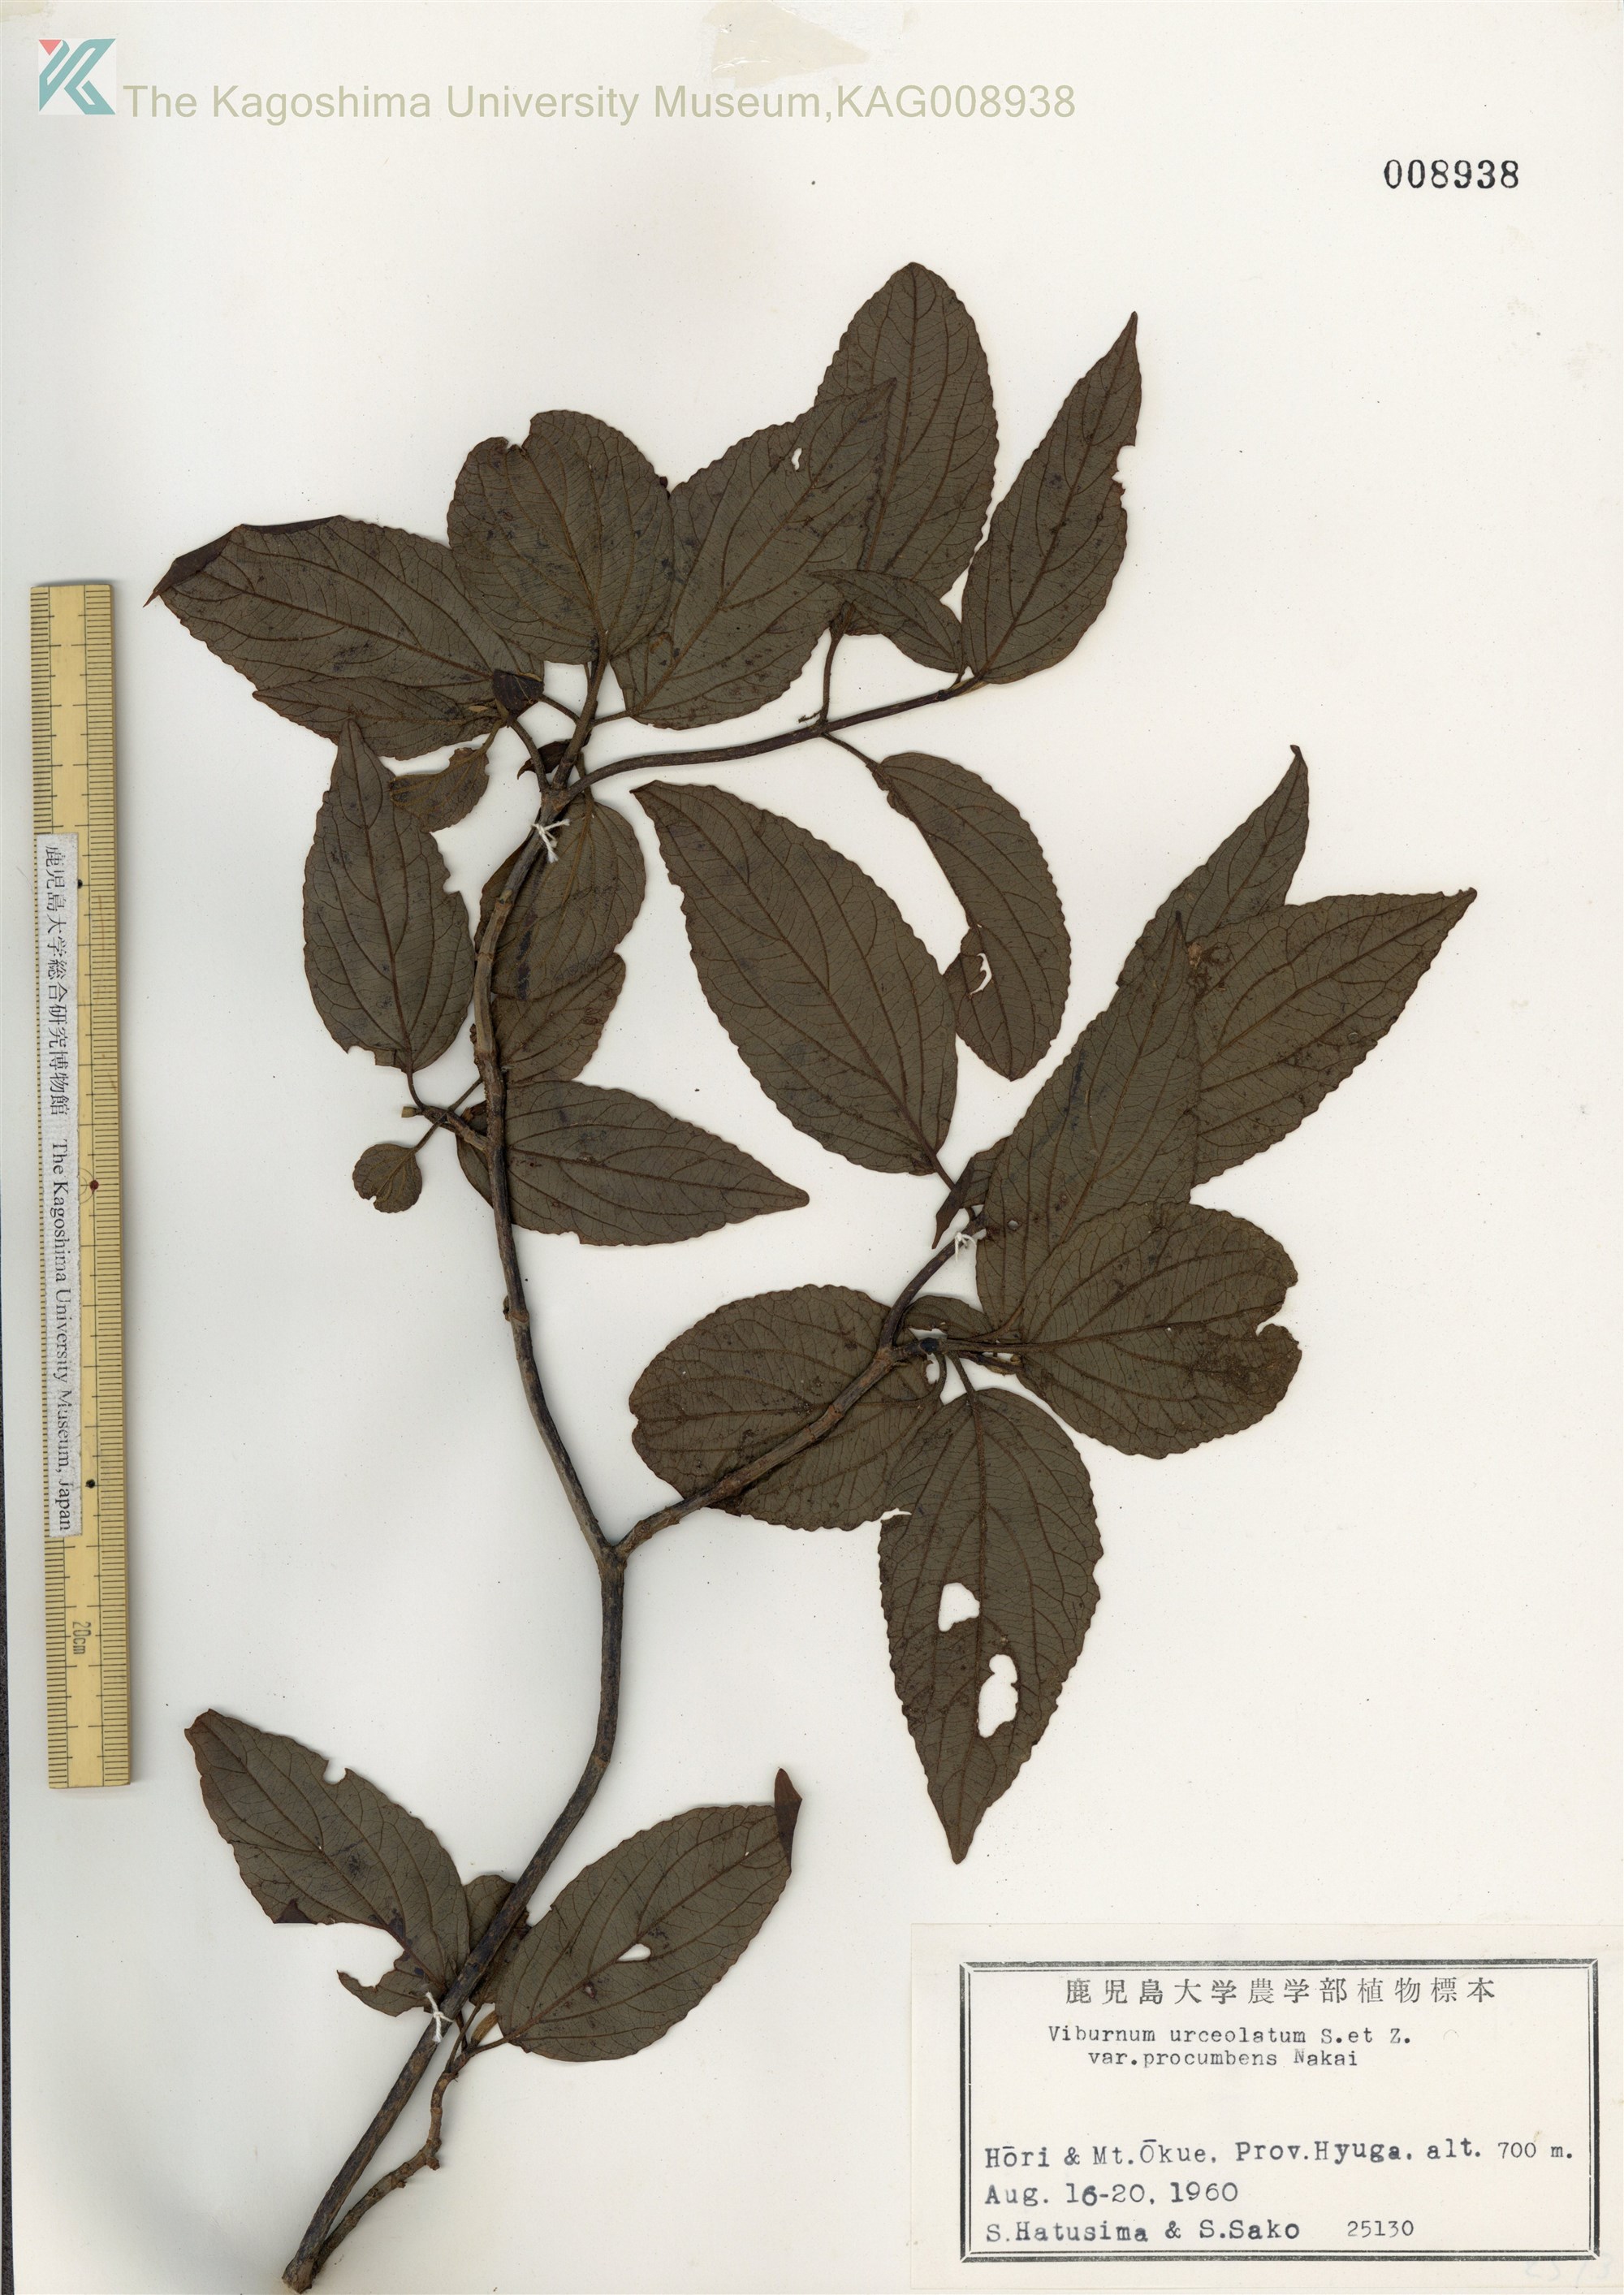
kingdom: Plantae
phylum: Tracheophyta
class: Magnoliopsida
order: Dipsacales
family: Viburnaceae
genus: Viburnum
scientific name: Viburnum urceolatum
